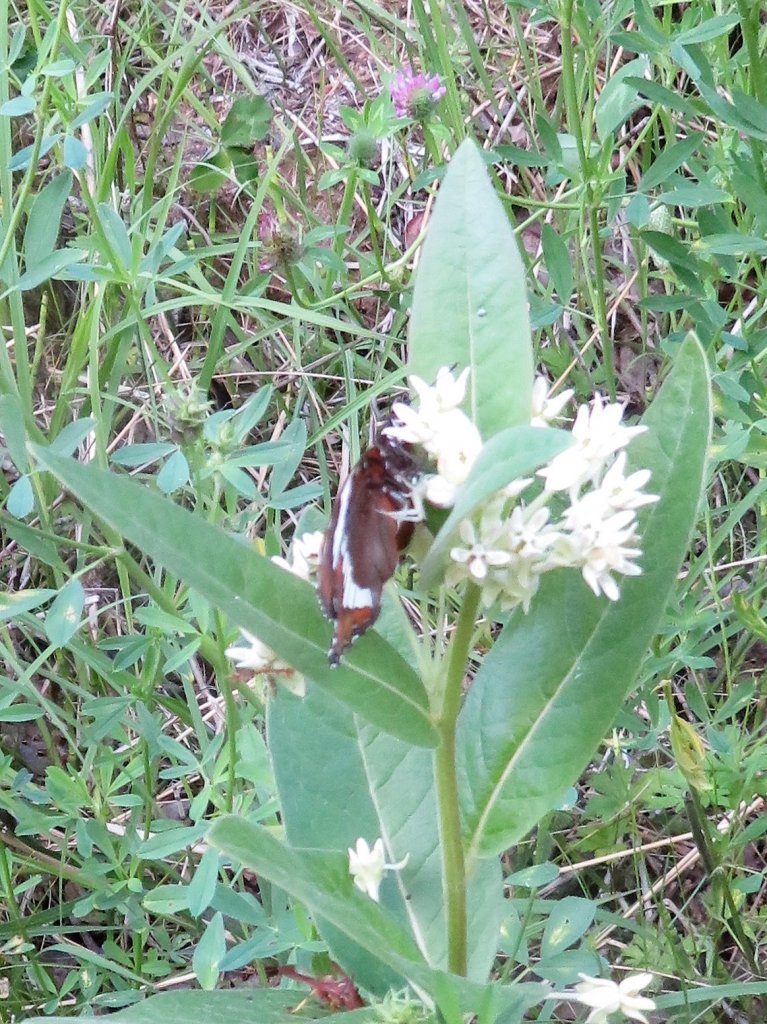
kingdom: Animalia
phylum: Arthropoda
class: Insecta
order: Lepidoptera
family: Nymphalidae
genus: Limenitis
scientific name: Limenitis arthemis
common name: Red-spotted Admiral
